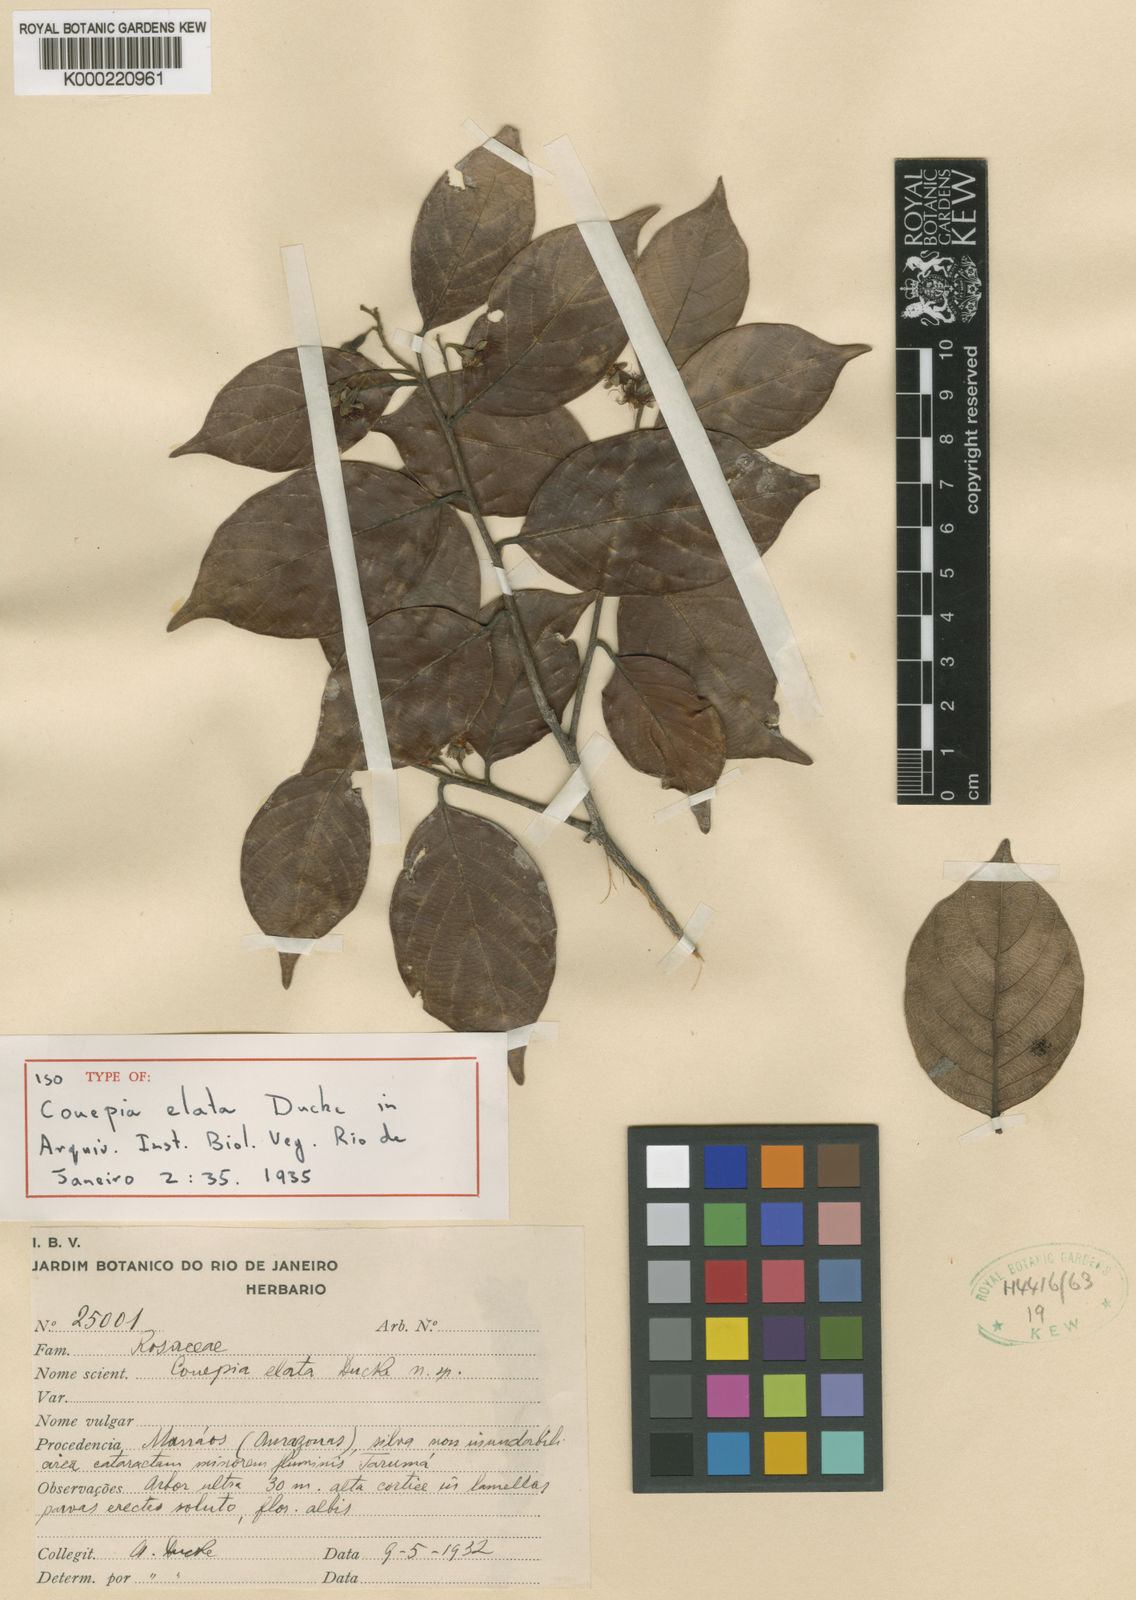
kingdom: Plantae
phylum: Tracheophyta
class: Magnoliopsida
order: Malpighiales
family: Chrysobalanaceae
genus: Gaulettia
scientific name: Gaulettia elata
